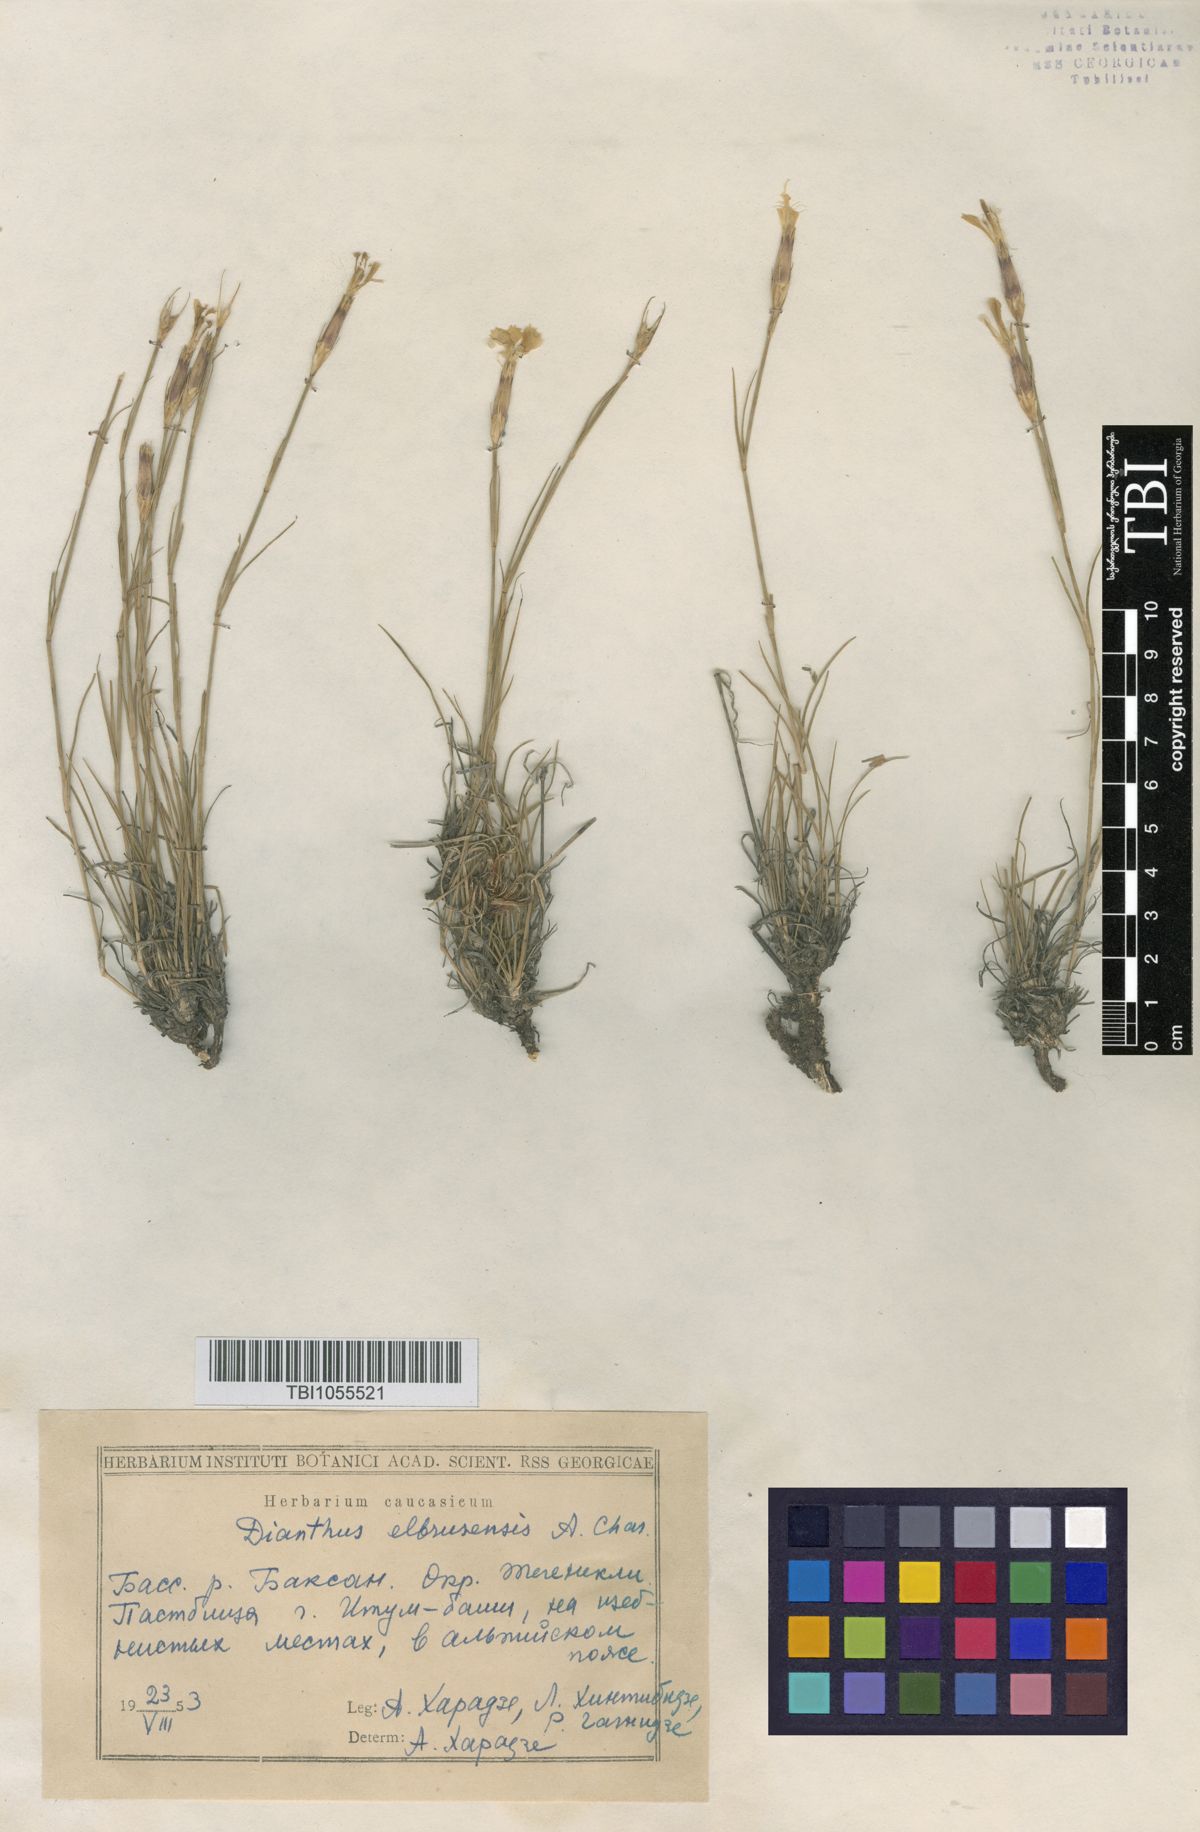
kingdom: Plantae
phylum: Tracheophyta
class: Magnoliopsida
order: Caryophyllales
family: Caryophyllaceae
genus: Dianthus
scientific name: Dianthus
